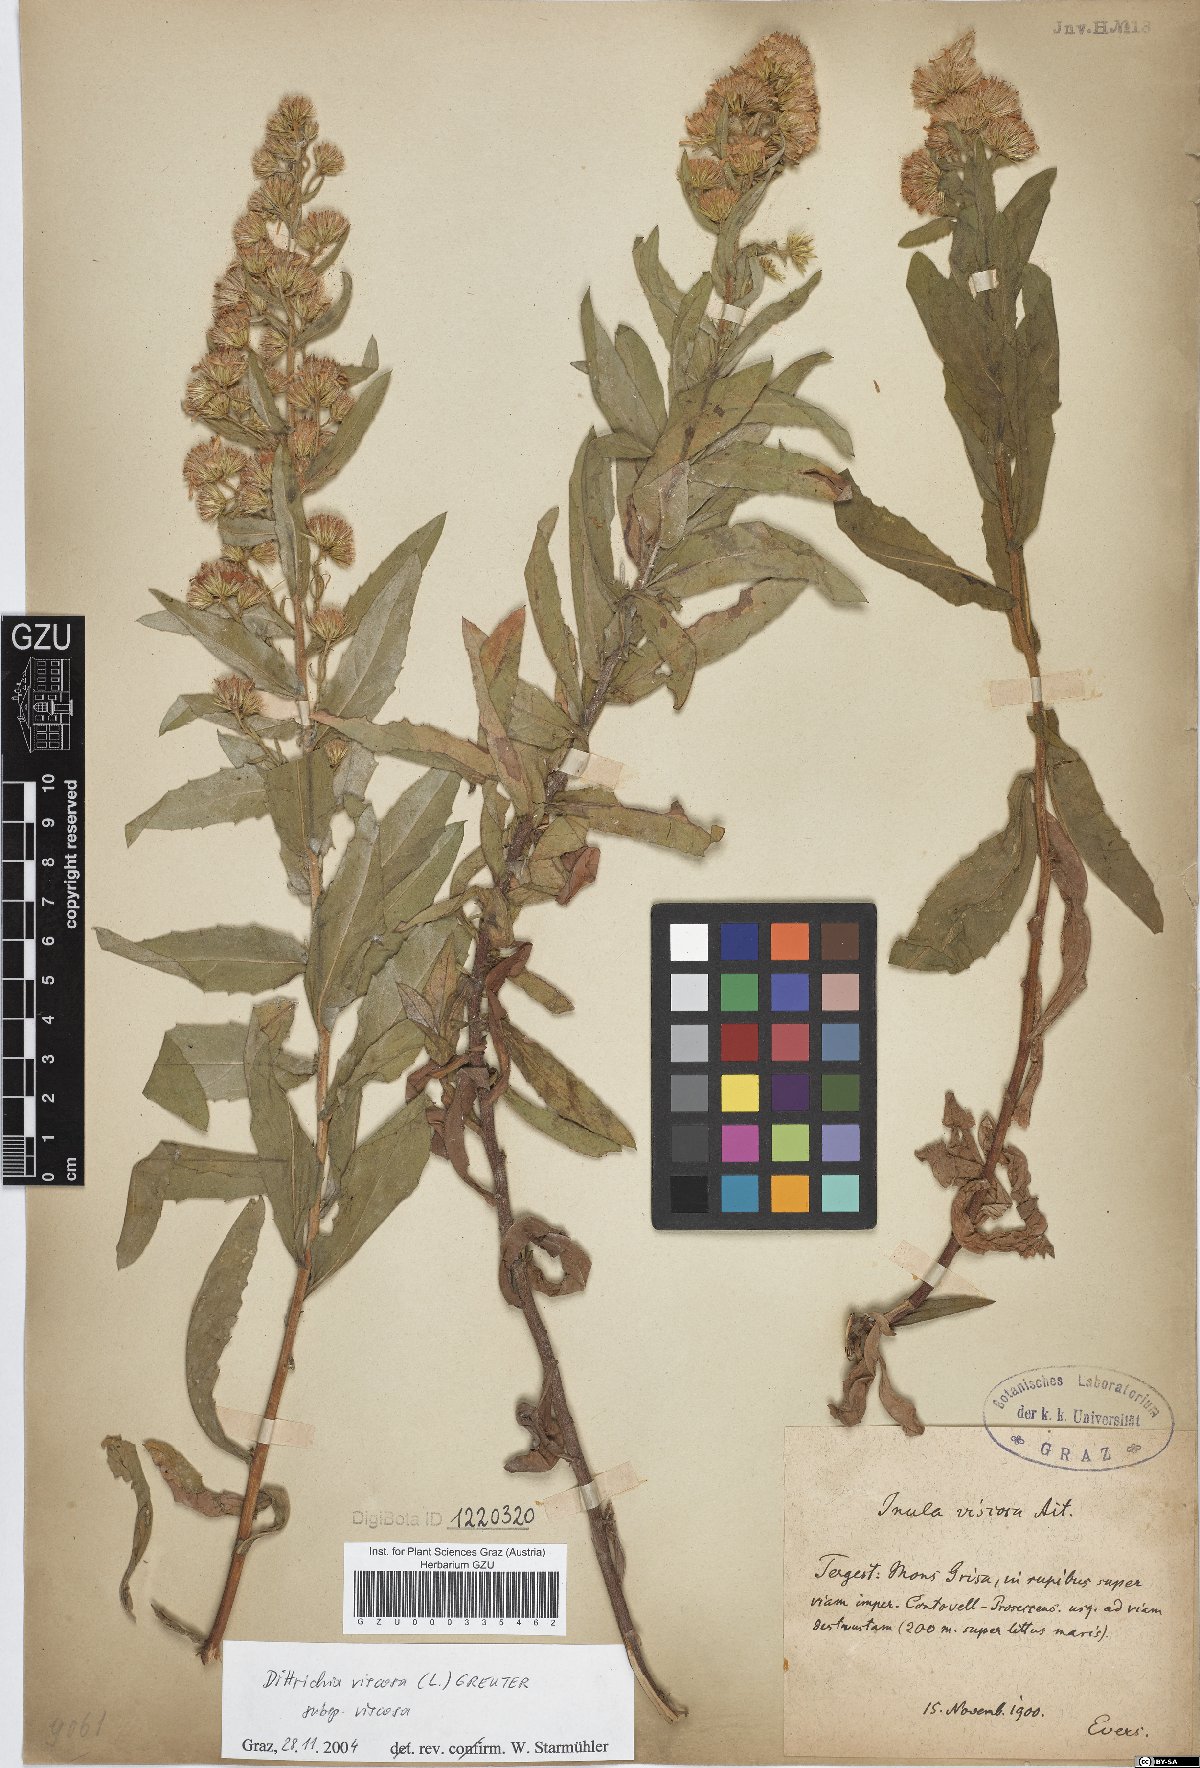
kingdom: Plantae
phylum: Tracheophyta
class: Magnoliopsida
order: Asterales
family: Asteraceae
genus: Dittrichia
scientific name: Dittrichia viscosa
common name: Woody fleabane
